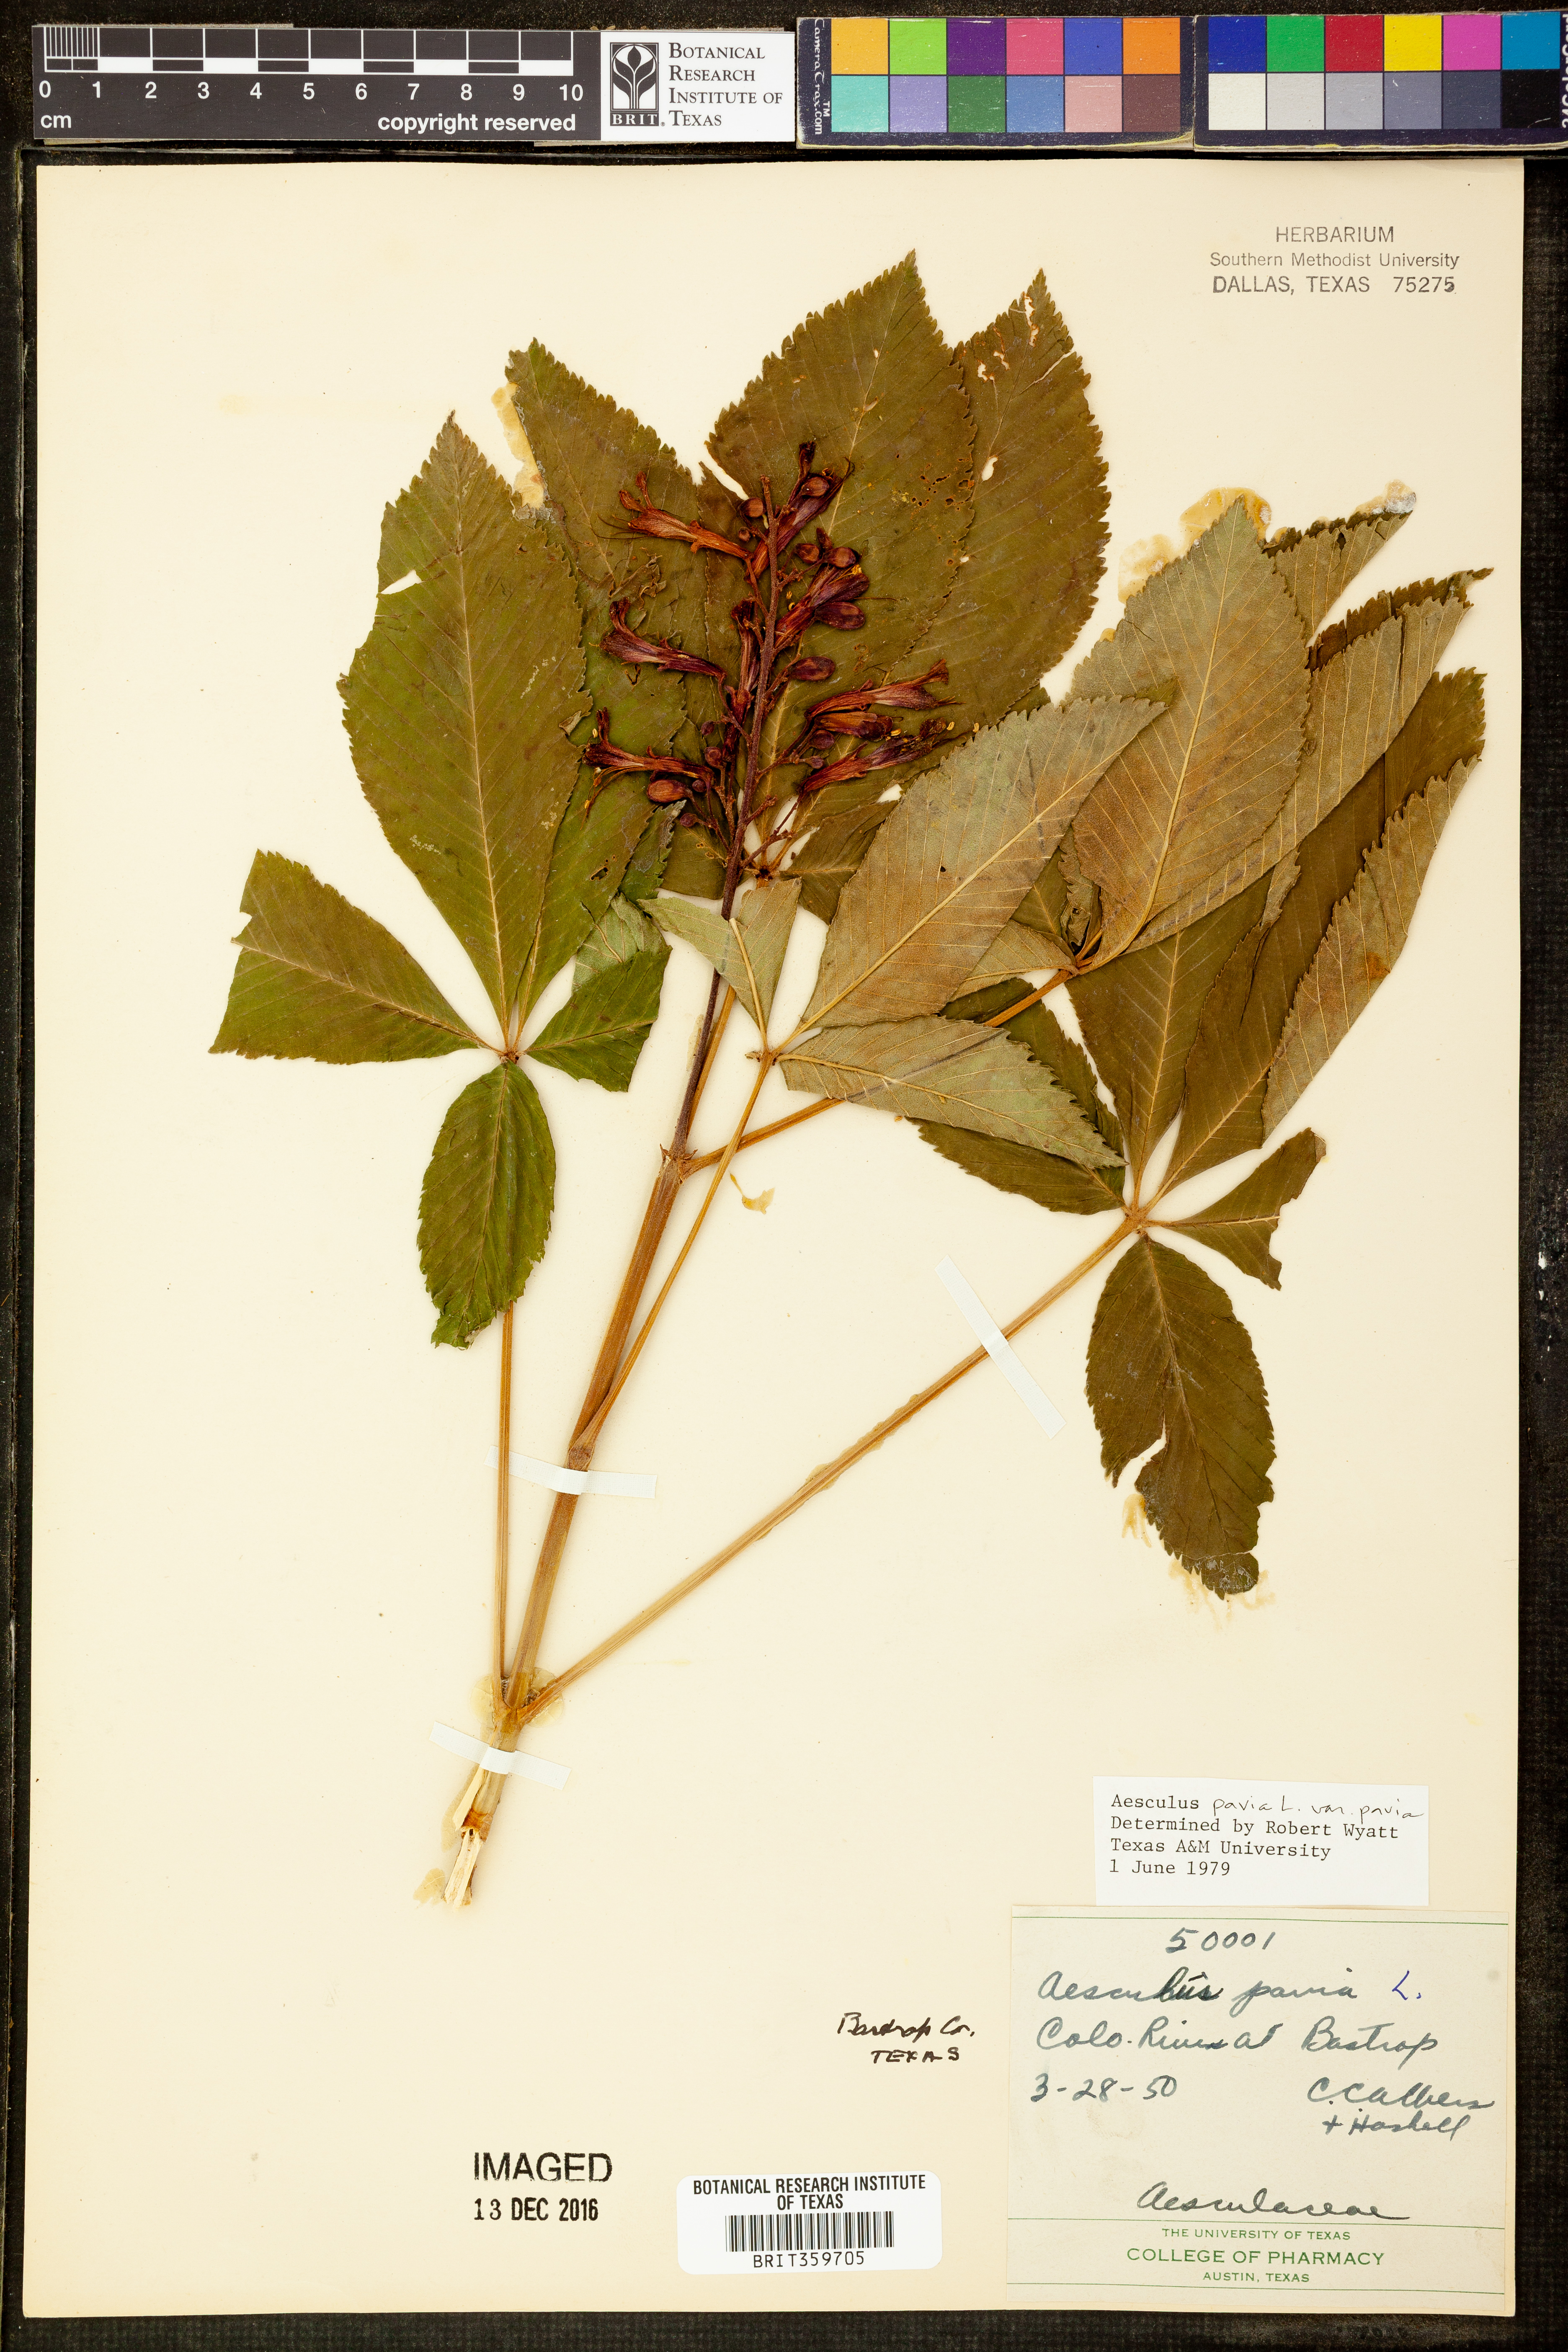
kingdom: Plantae
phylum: Tracheophyta
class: Magnoliopsida
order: Sapindales
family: Sapindaceae
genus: Aesculus
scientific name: Aesculus pavia
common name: Red buckeye
